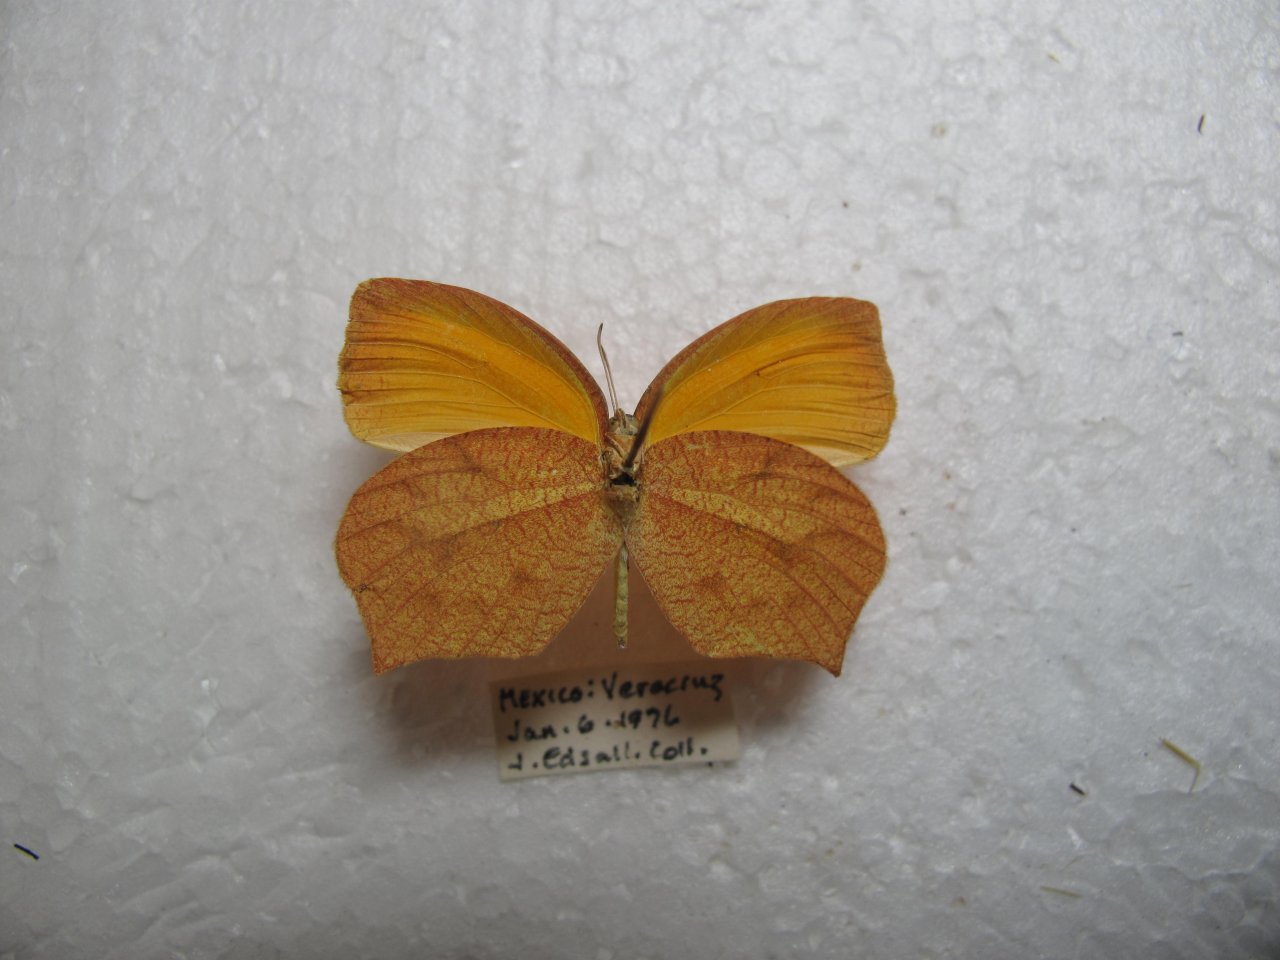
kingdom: Animalia
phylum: Arthropoda
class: Insecta
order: Lepidoptera
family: Pieridae
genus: Pyrisitia
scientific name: Pyrisitia proterpia
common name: Tailed Orange
